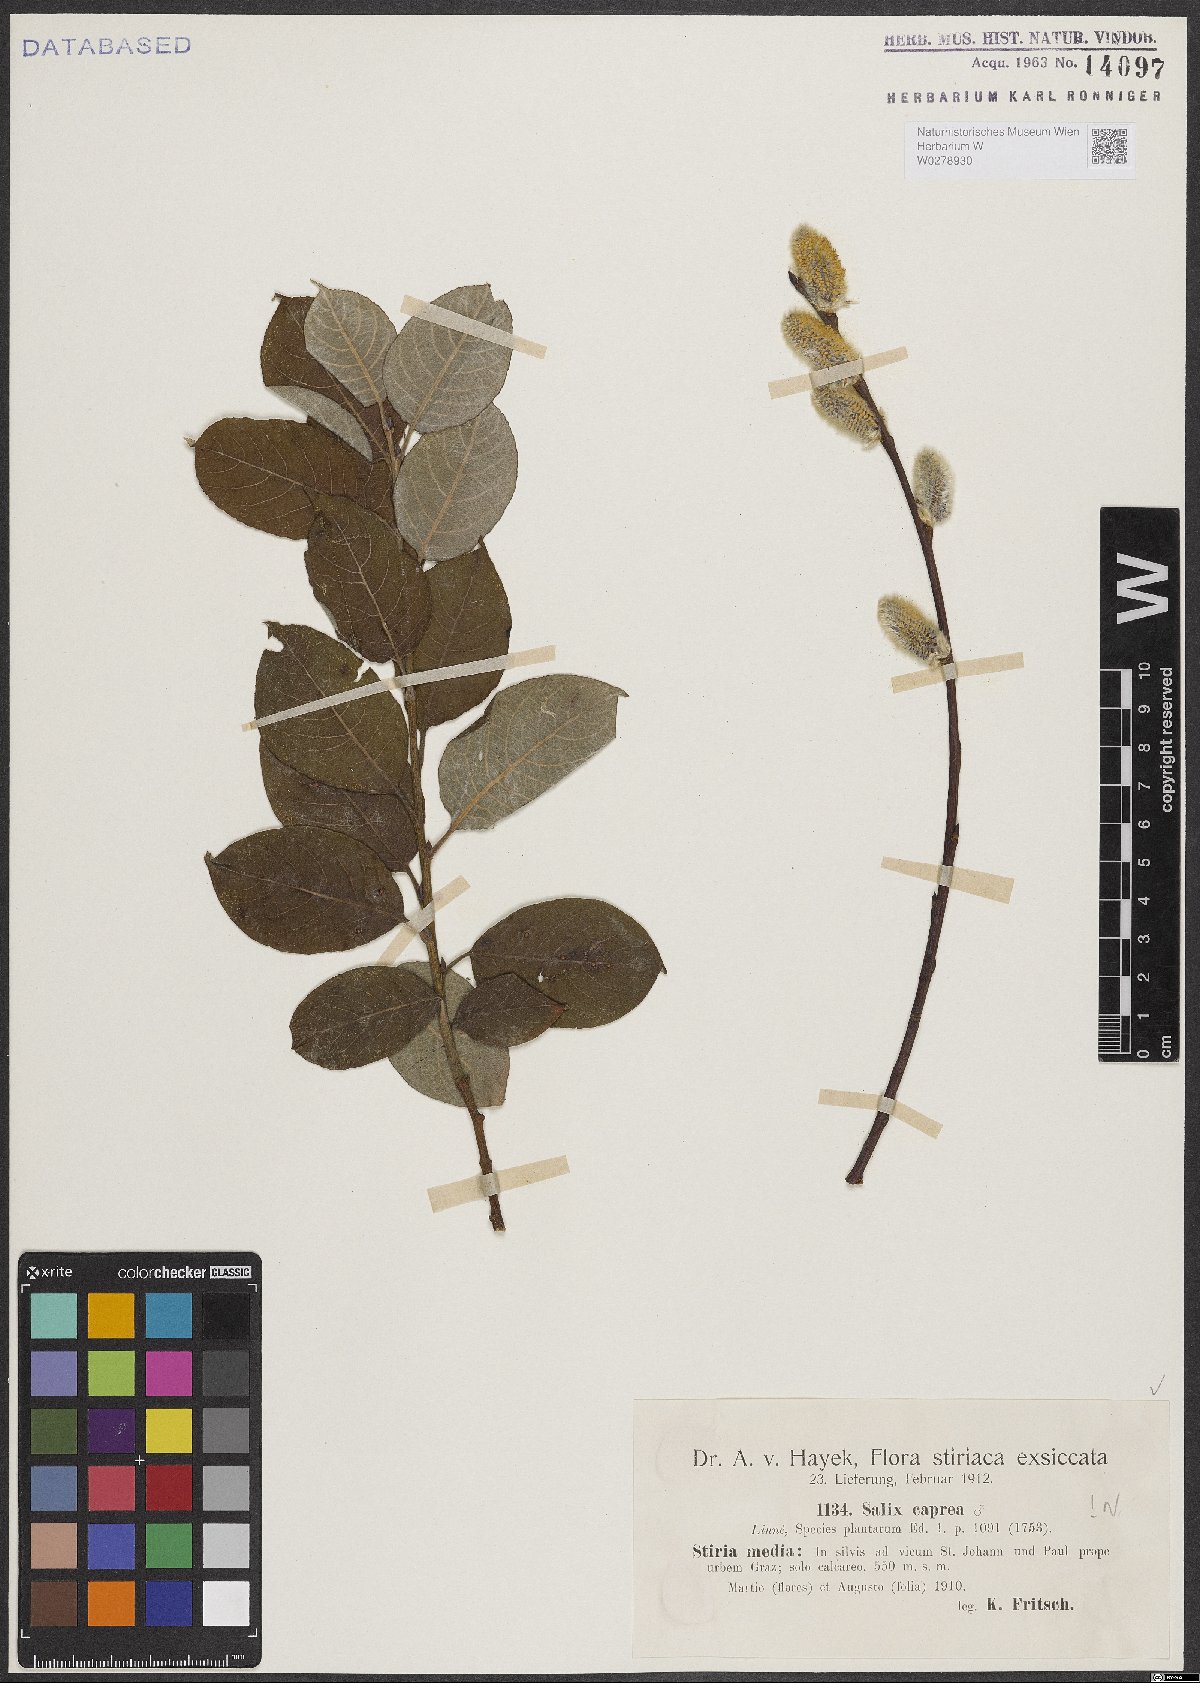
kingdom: Plantae
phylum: Tracheophyta
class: Magnoliopsida
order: Malpighiales
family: Salicaceae
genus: Salix
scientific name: Salix caprea
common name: Goat willow
